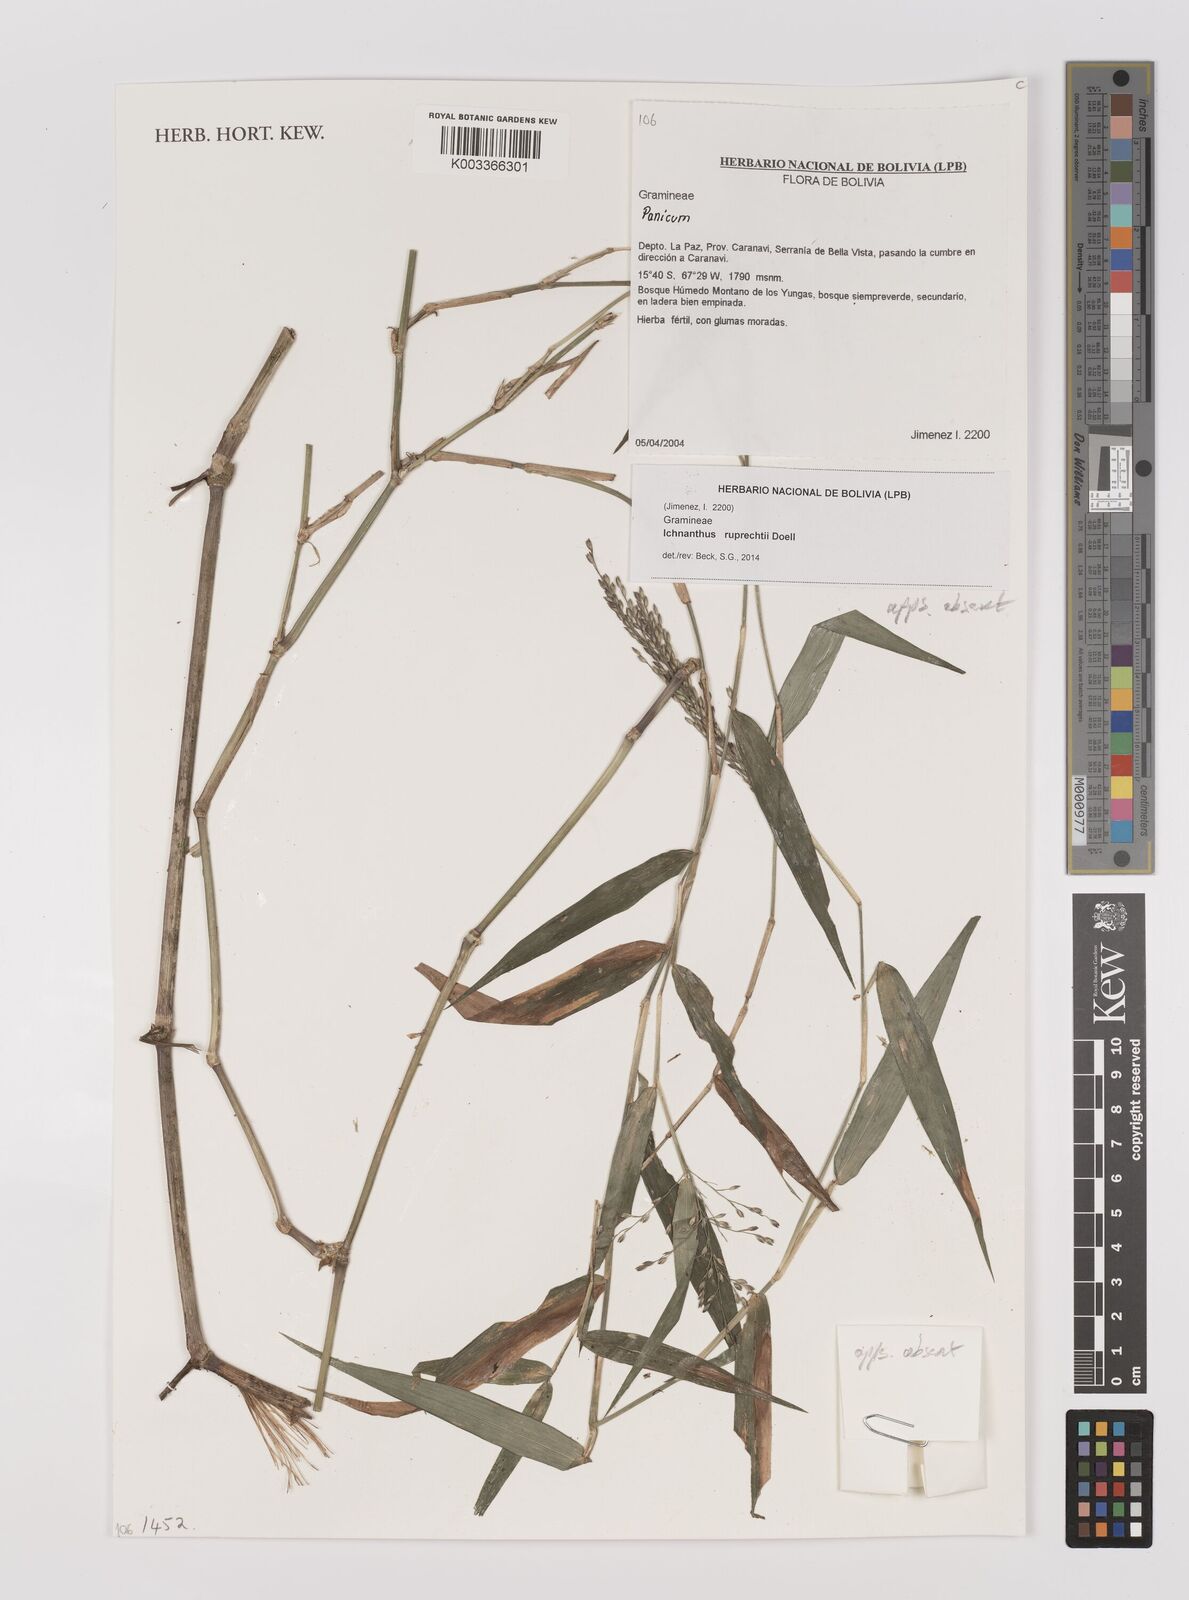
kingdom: Plantae
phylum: Tracheophyta
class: Liliopsida
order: Poales
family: Poaceae
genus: Ichnanthus
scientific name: Ichnanthus ruprechtii
